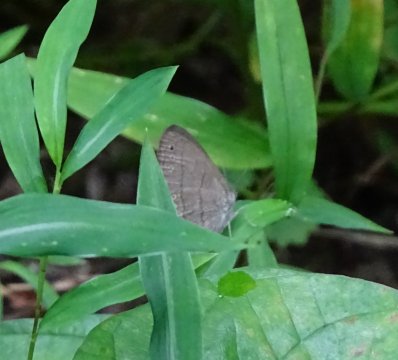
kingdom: Animalia
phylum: Arthropoda
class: Insecta
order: Lepidoptera
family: Nymphalidae
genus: Hermeuptychia
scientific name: Hermeuptychia hermes
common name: Carolina Satyr
